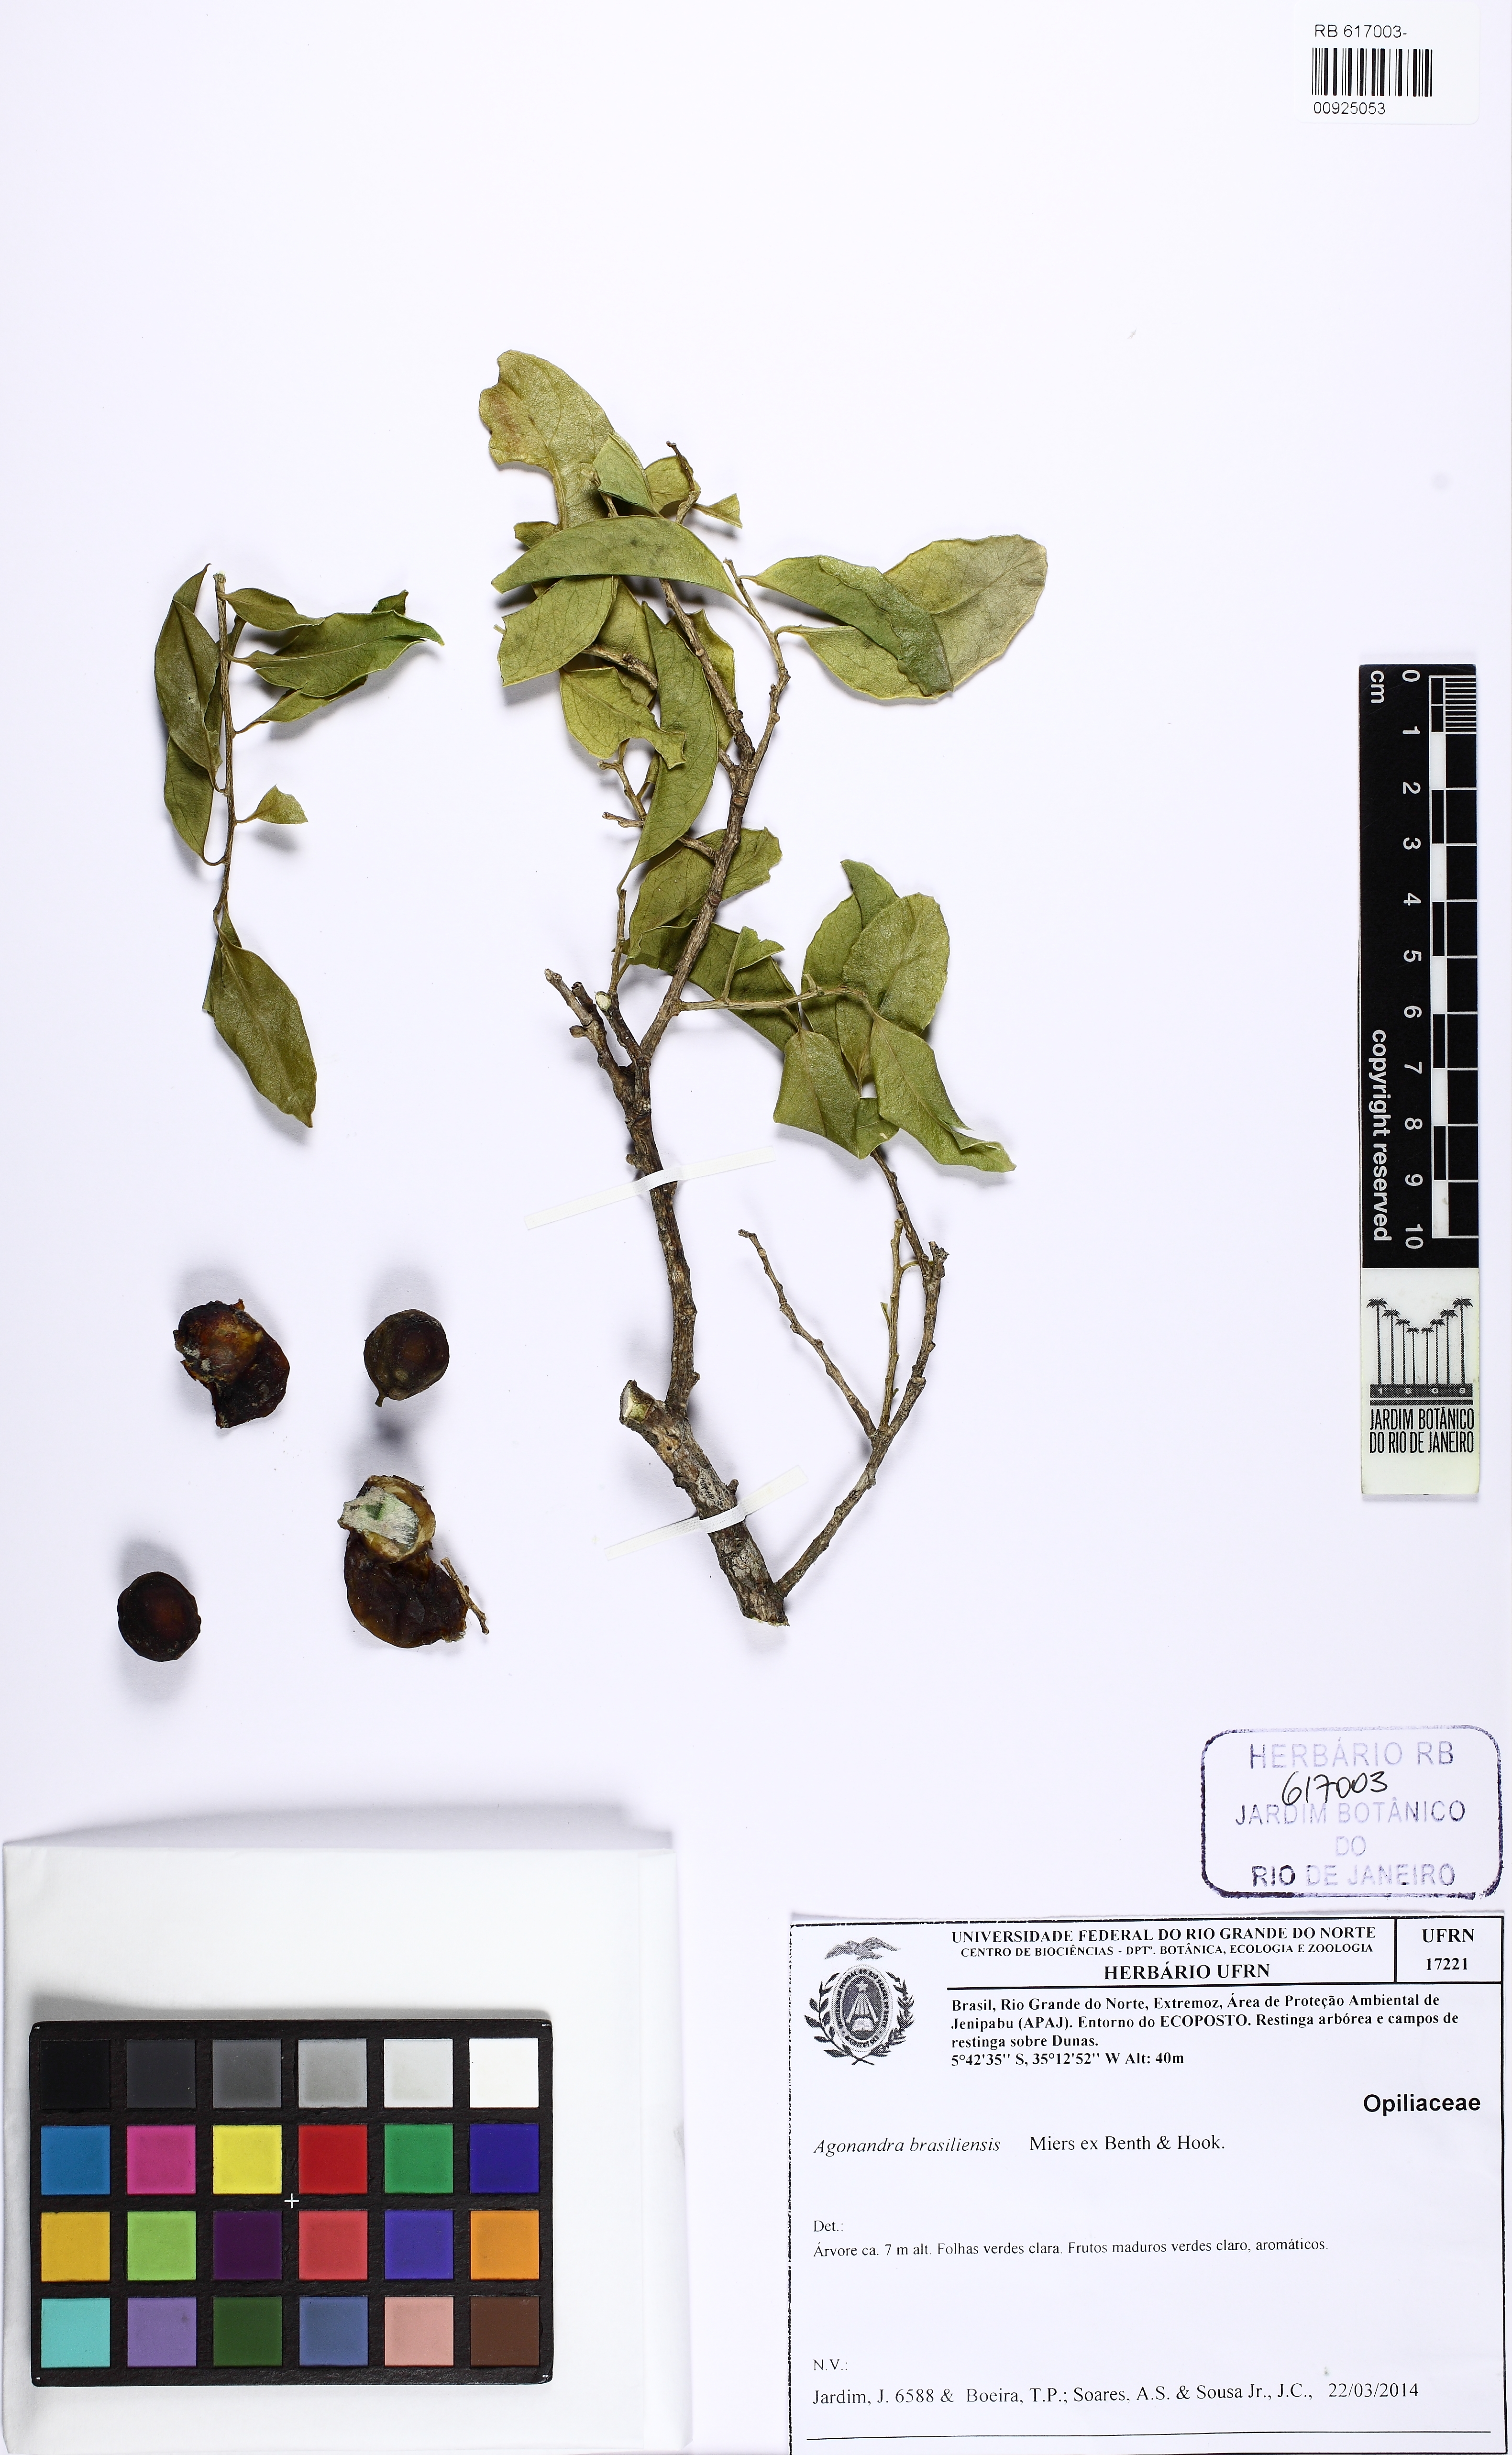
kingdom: Plantae
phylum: Tracheophyta
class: Magnoliopsida
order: Santalales
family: Opiliaceae
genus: Agonandra
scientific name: Agonandra brasiliensis
